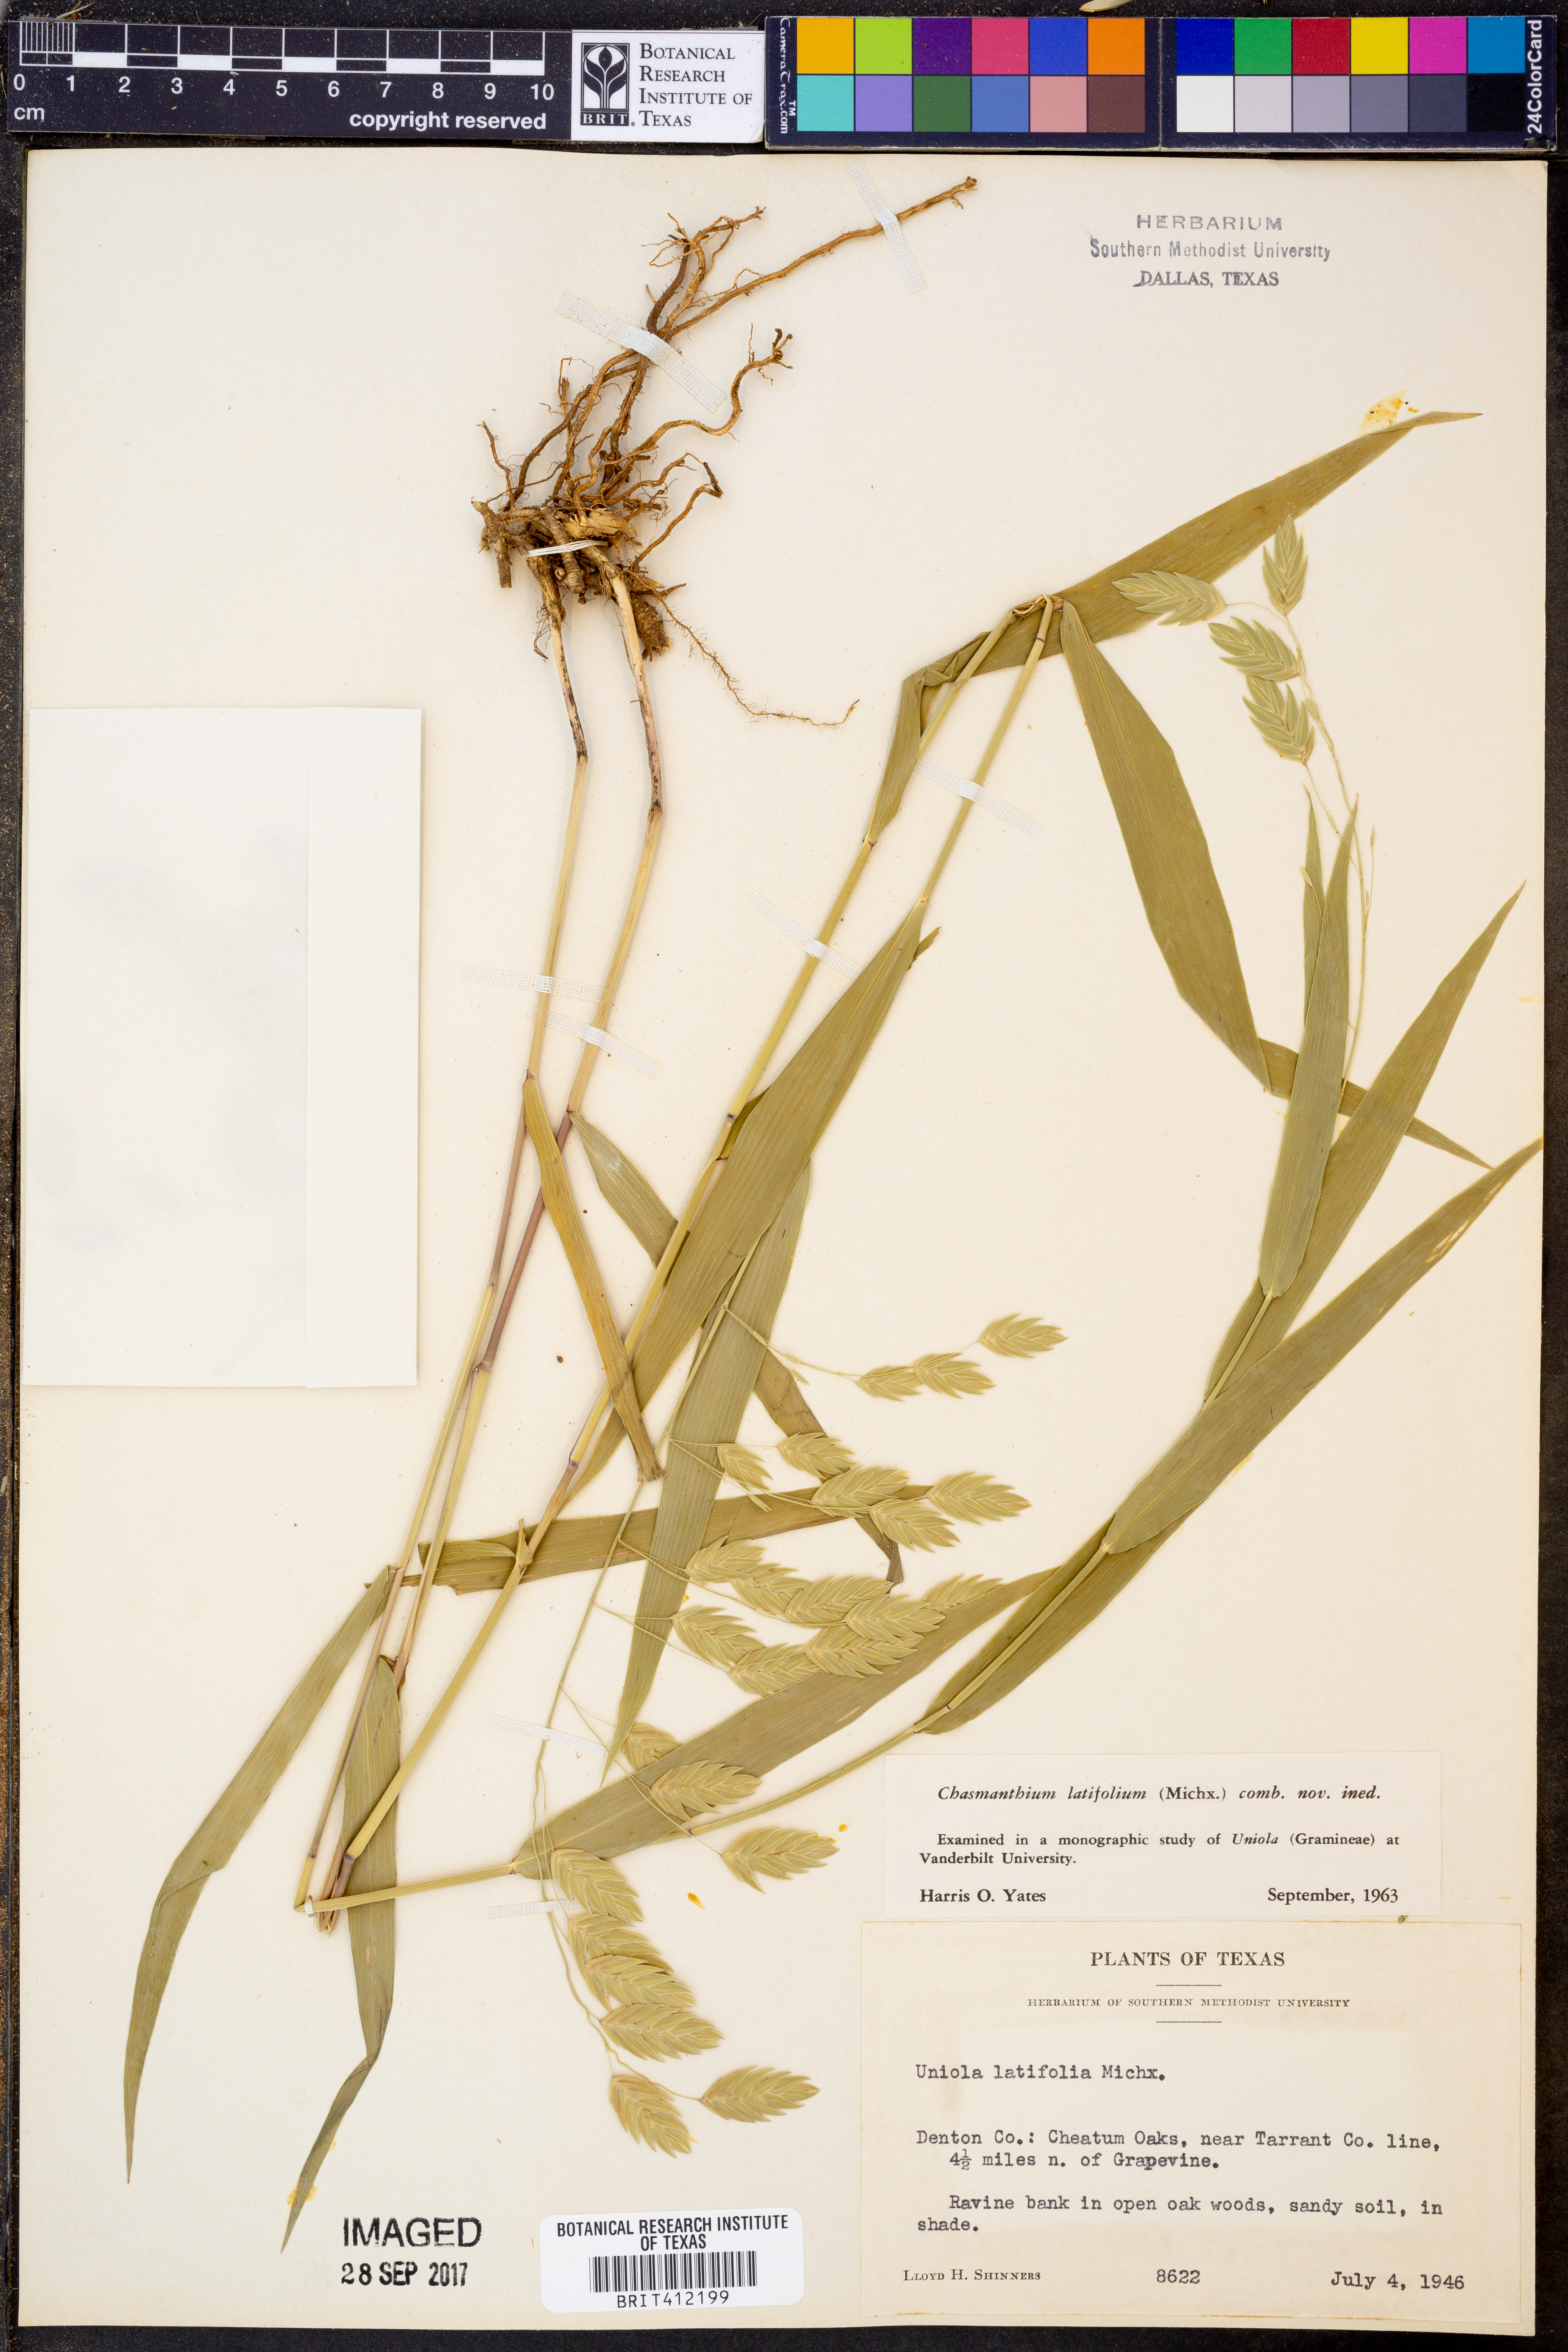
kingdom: Plantae
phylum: Tracheophyta
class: Liliopsida
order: Poales
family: Poaceae
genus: Chasmanthium
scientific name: Chasmanthium latifolium
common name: Broad-leaved chasmanthium
